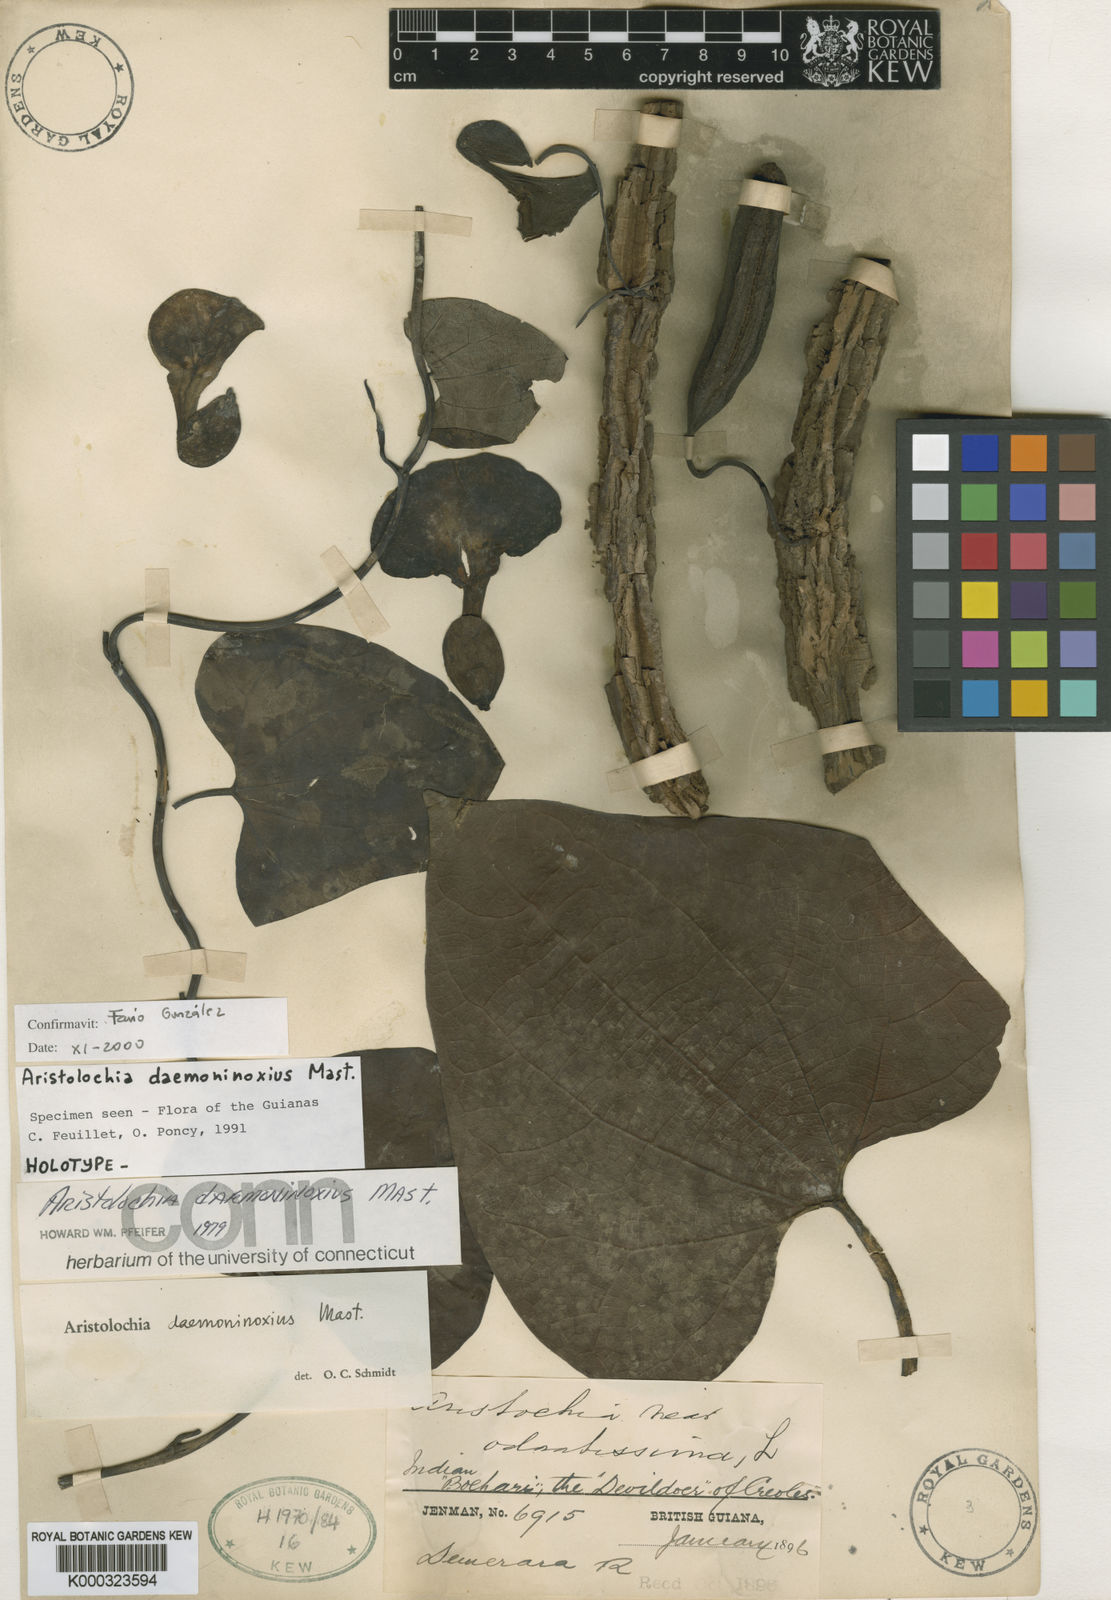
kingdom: Plantae
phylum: Tracheophyta
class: Magnoliopsida
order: Piperales
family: Aristolochiaceae
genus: Aristolochia
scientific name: Aristolochia daemoninoxia
